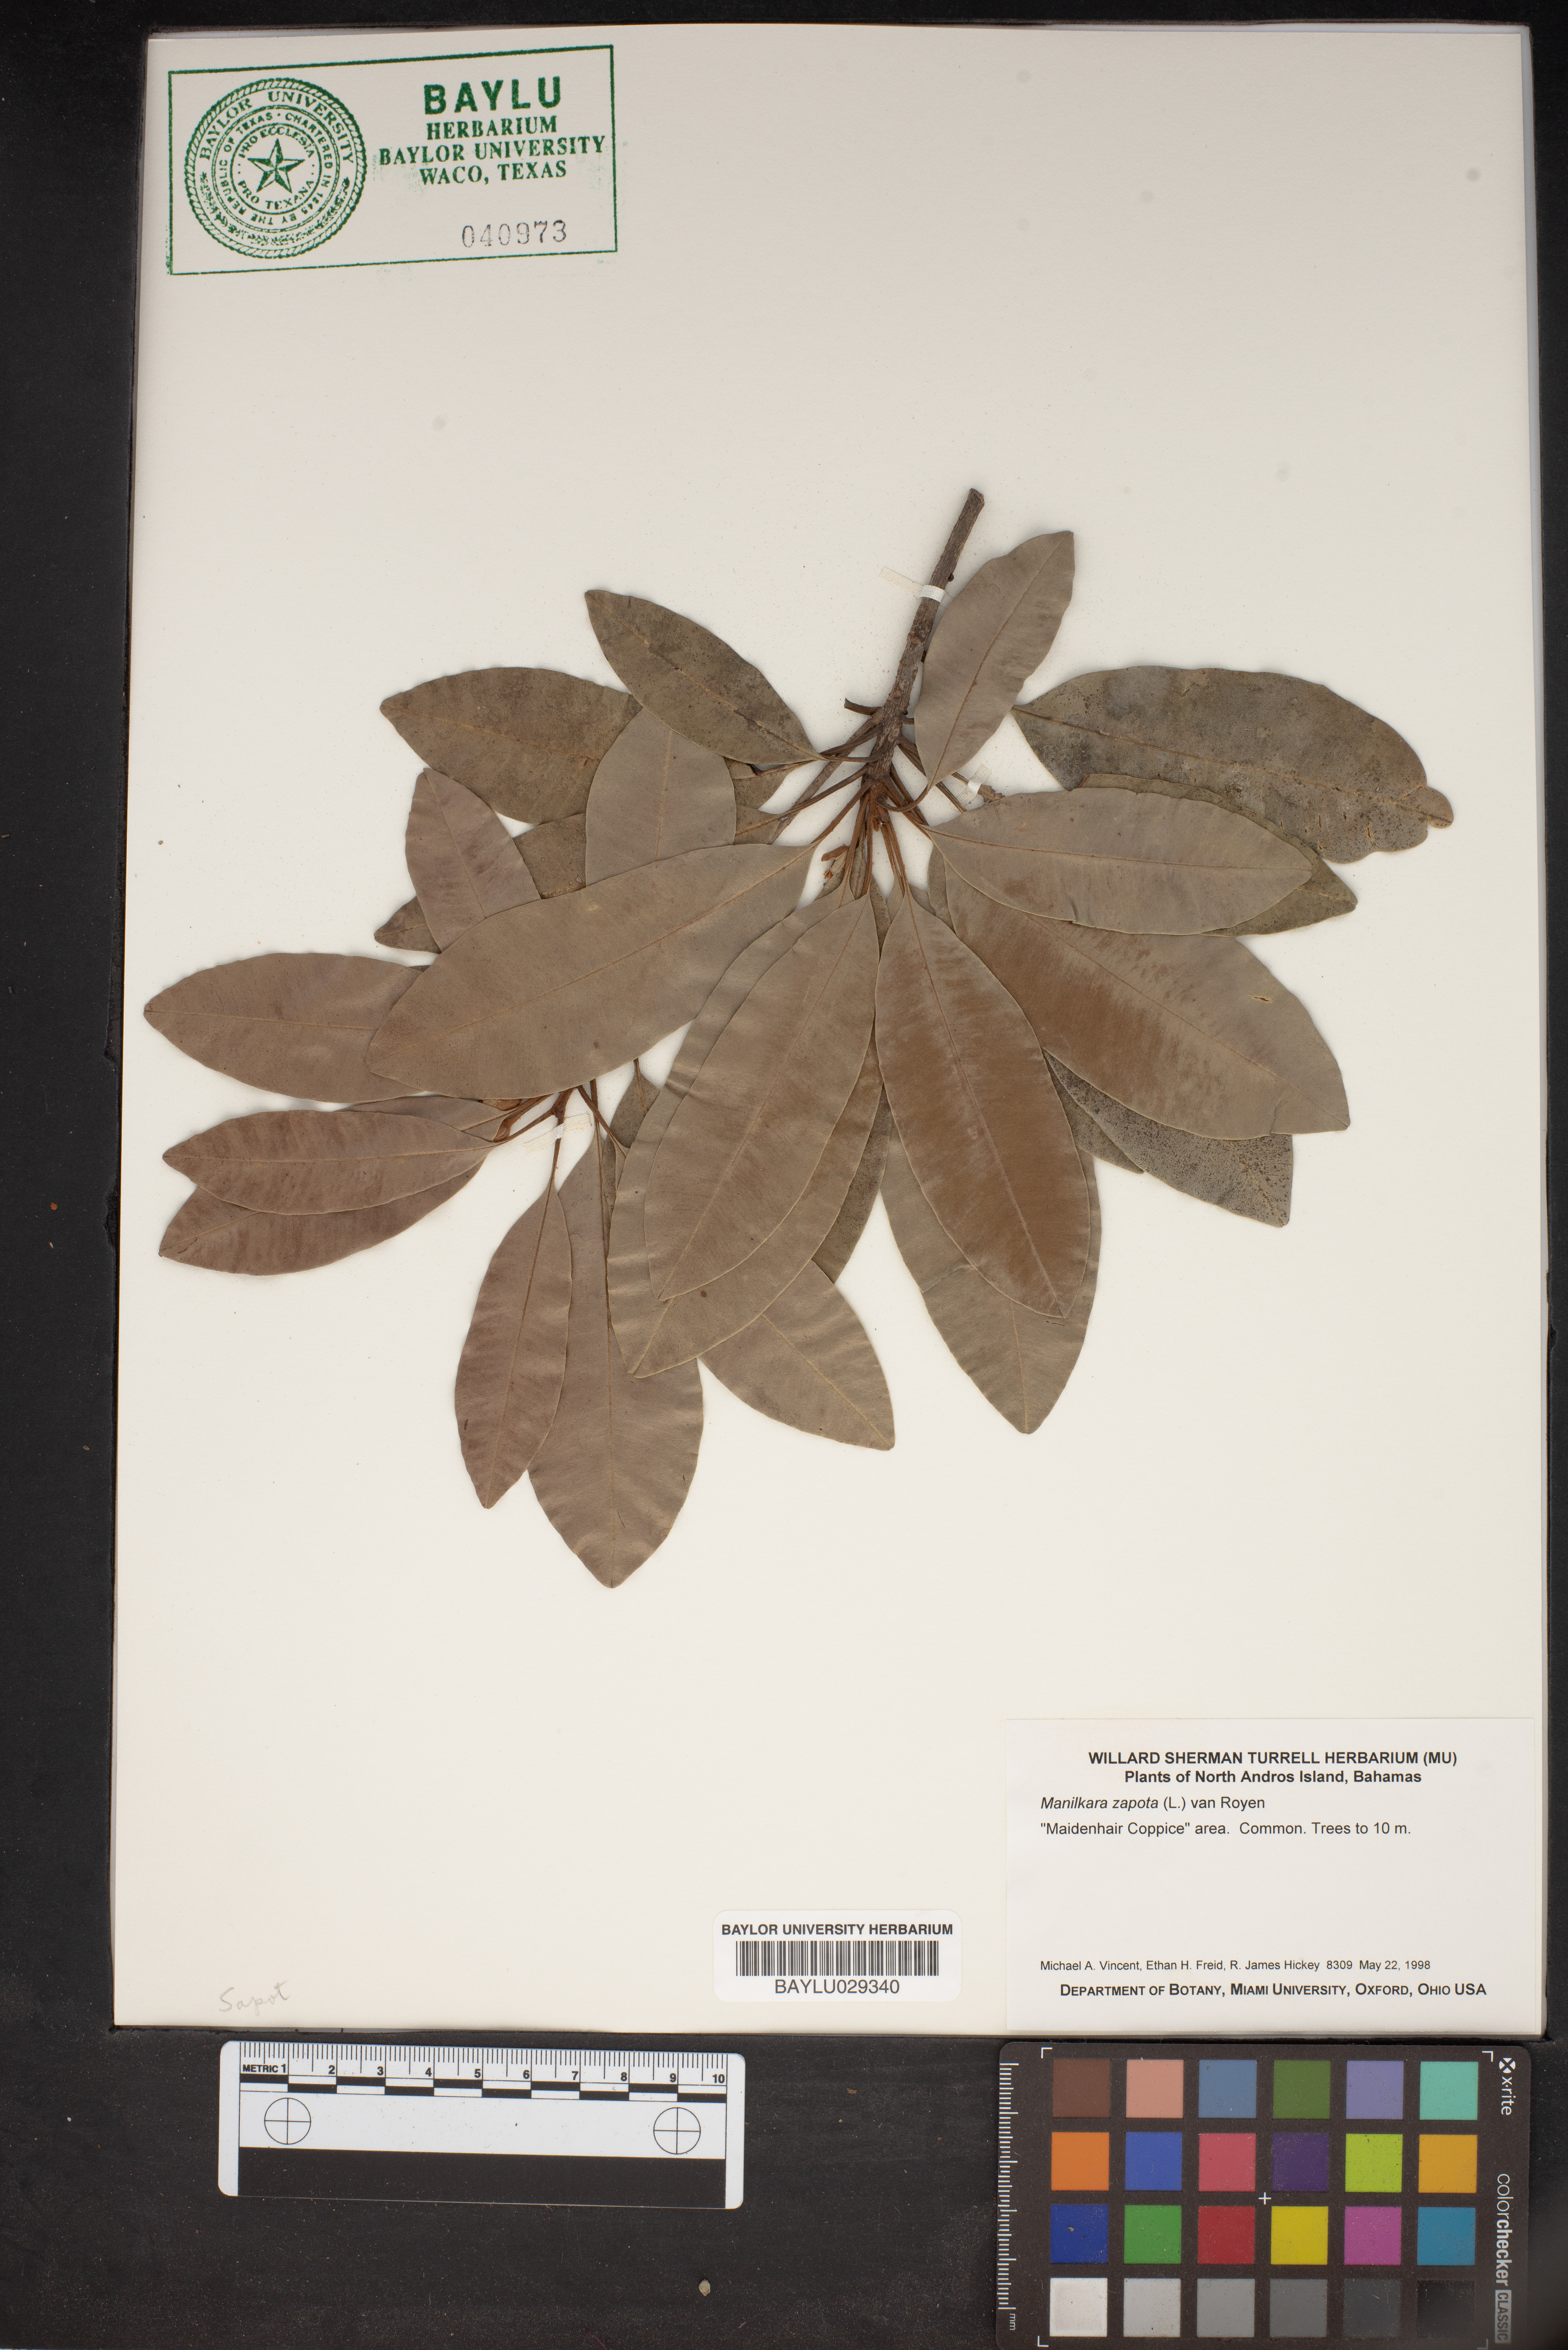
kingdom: Plantae
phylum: Tracheophyta
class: Magnoliopsida
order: Ericales
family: Sapotaceae
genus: Manilkara
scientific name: Manilkara zapota
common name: Sapodilla
